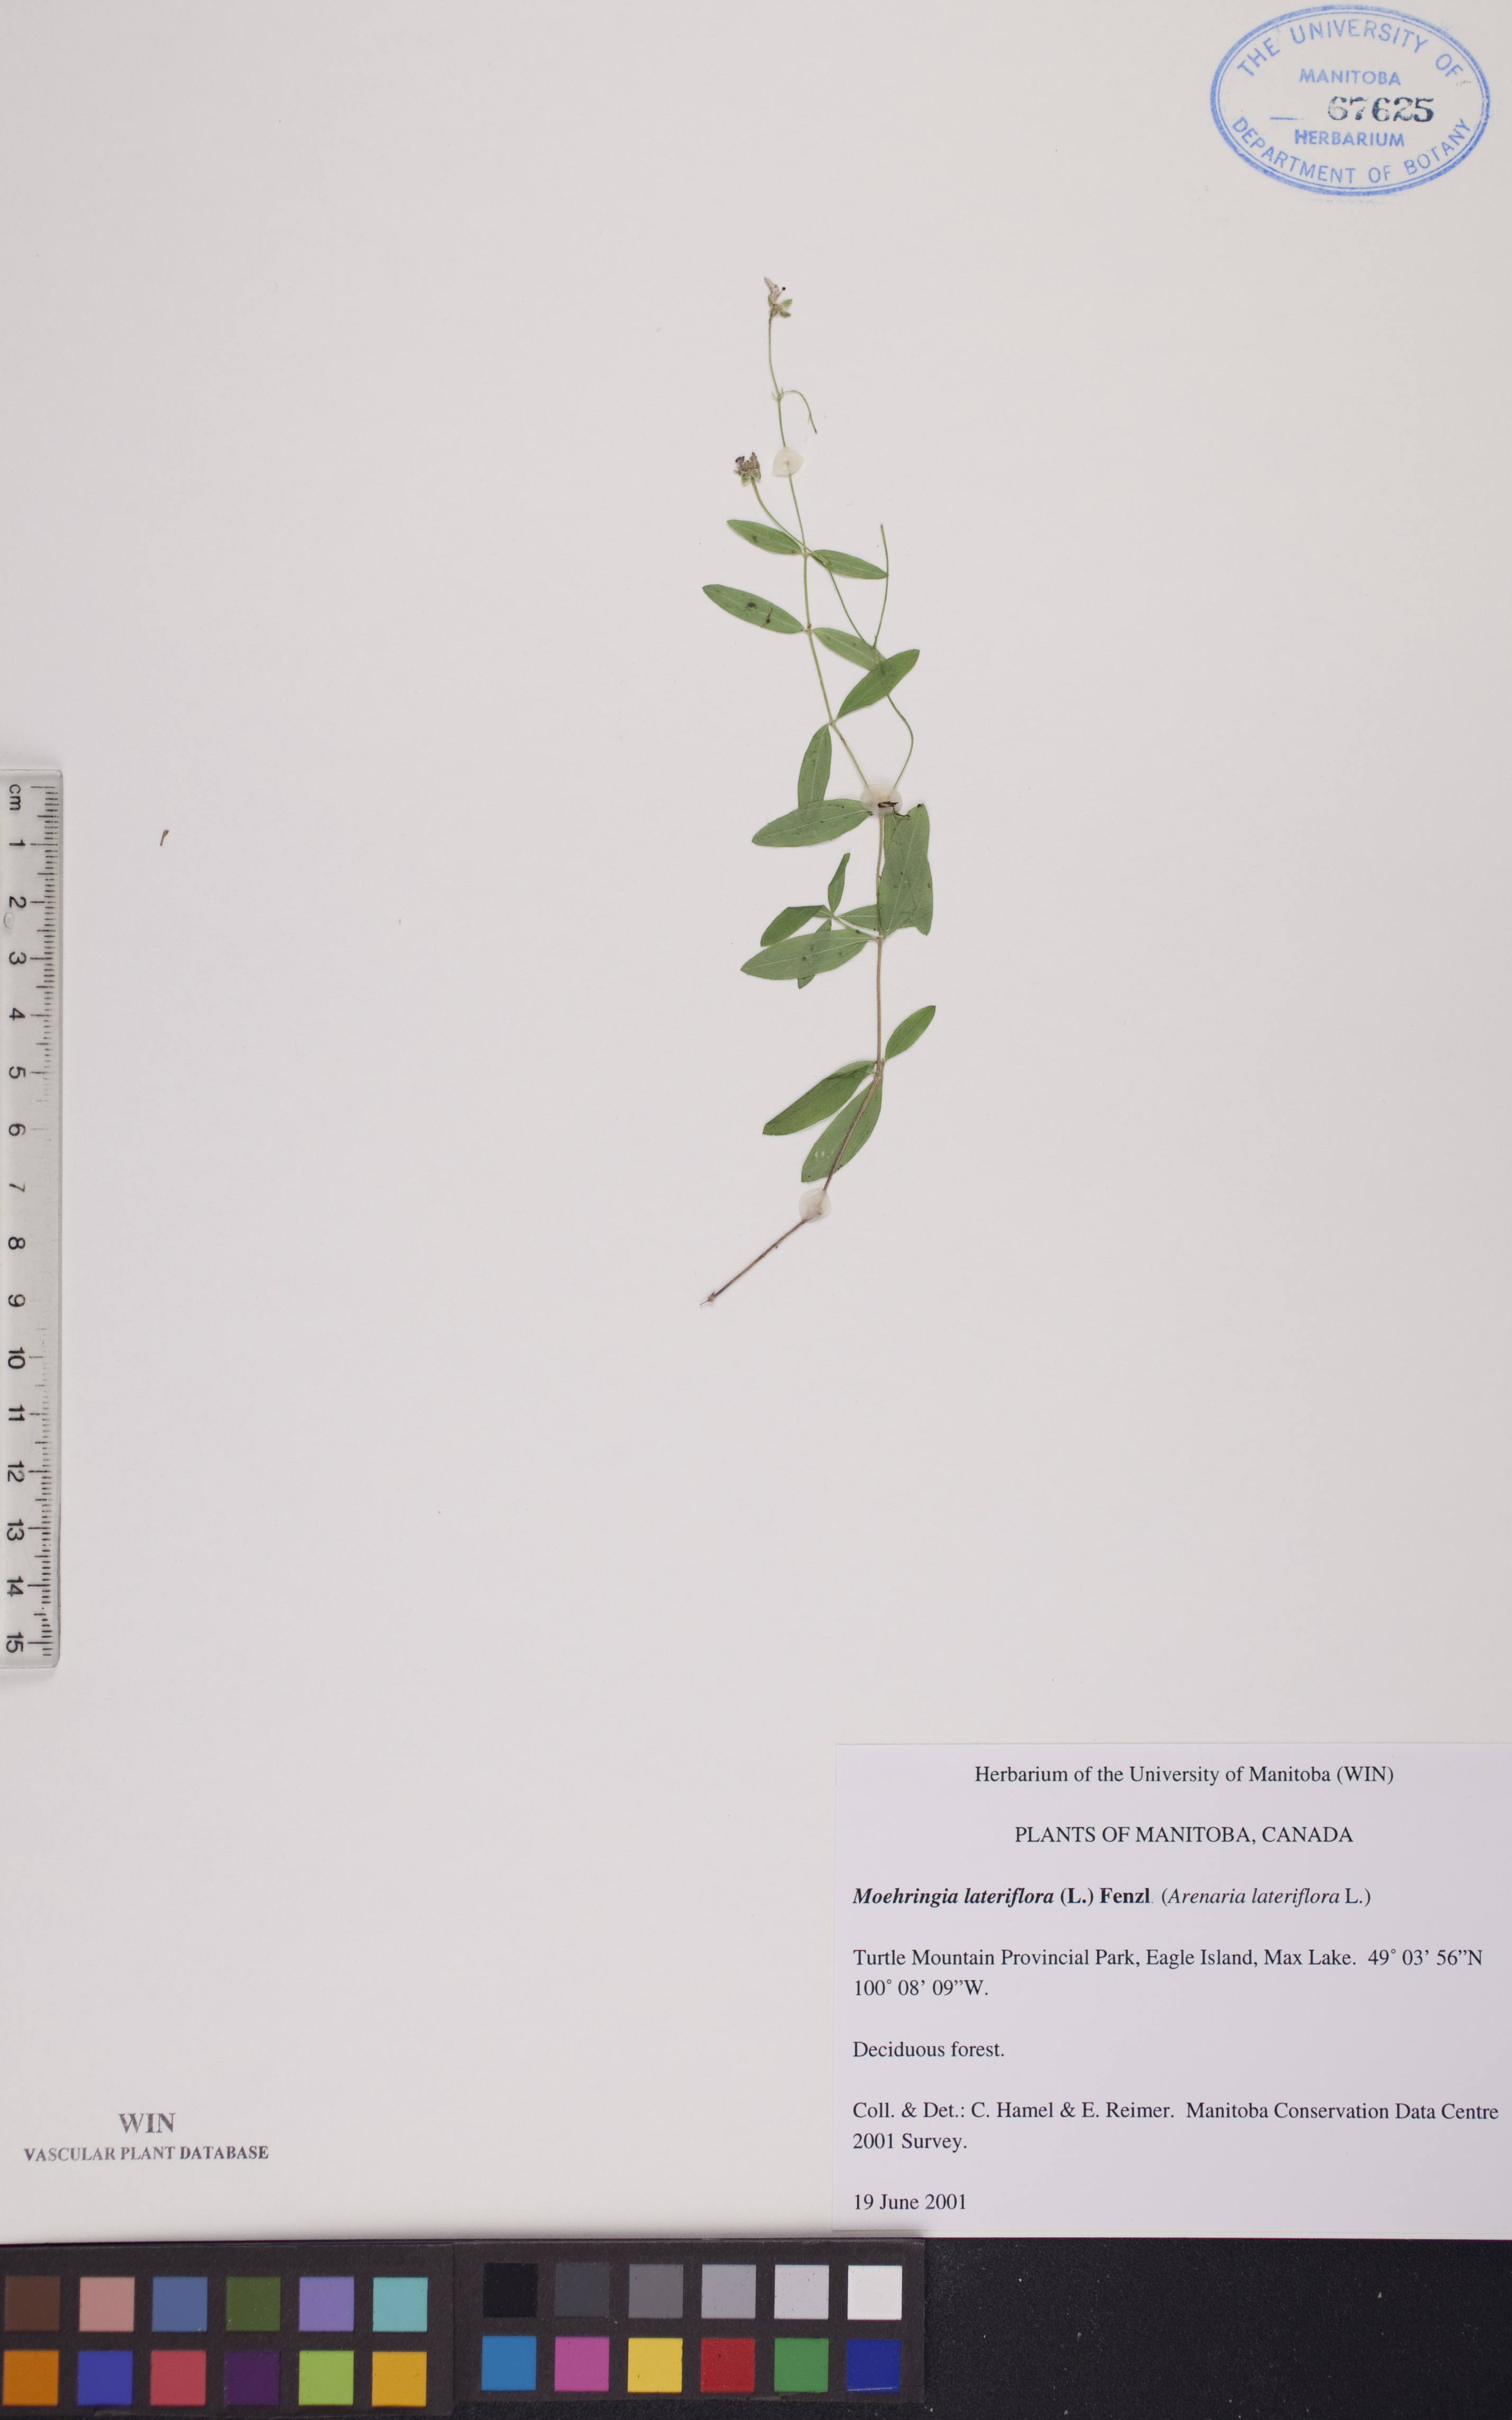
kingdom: Plantae
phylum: Tracheophyta
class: Magnoliopsida
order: Caryophyllales
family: Caryophyllaceae
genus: Moehringia
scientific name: Moehringia lateriflora
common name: Blunt-leaved sandwort
